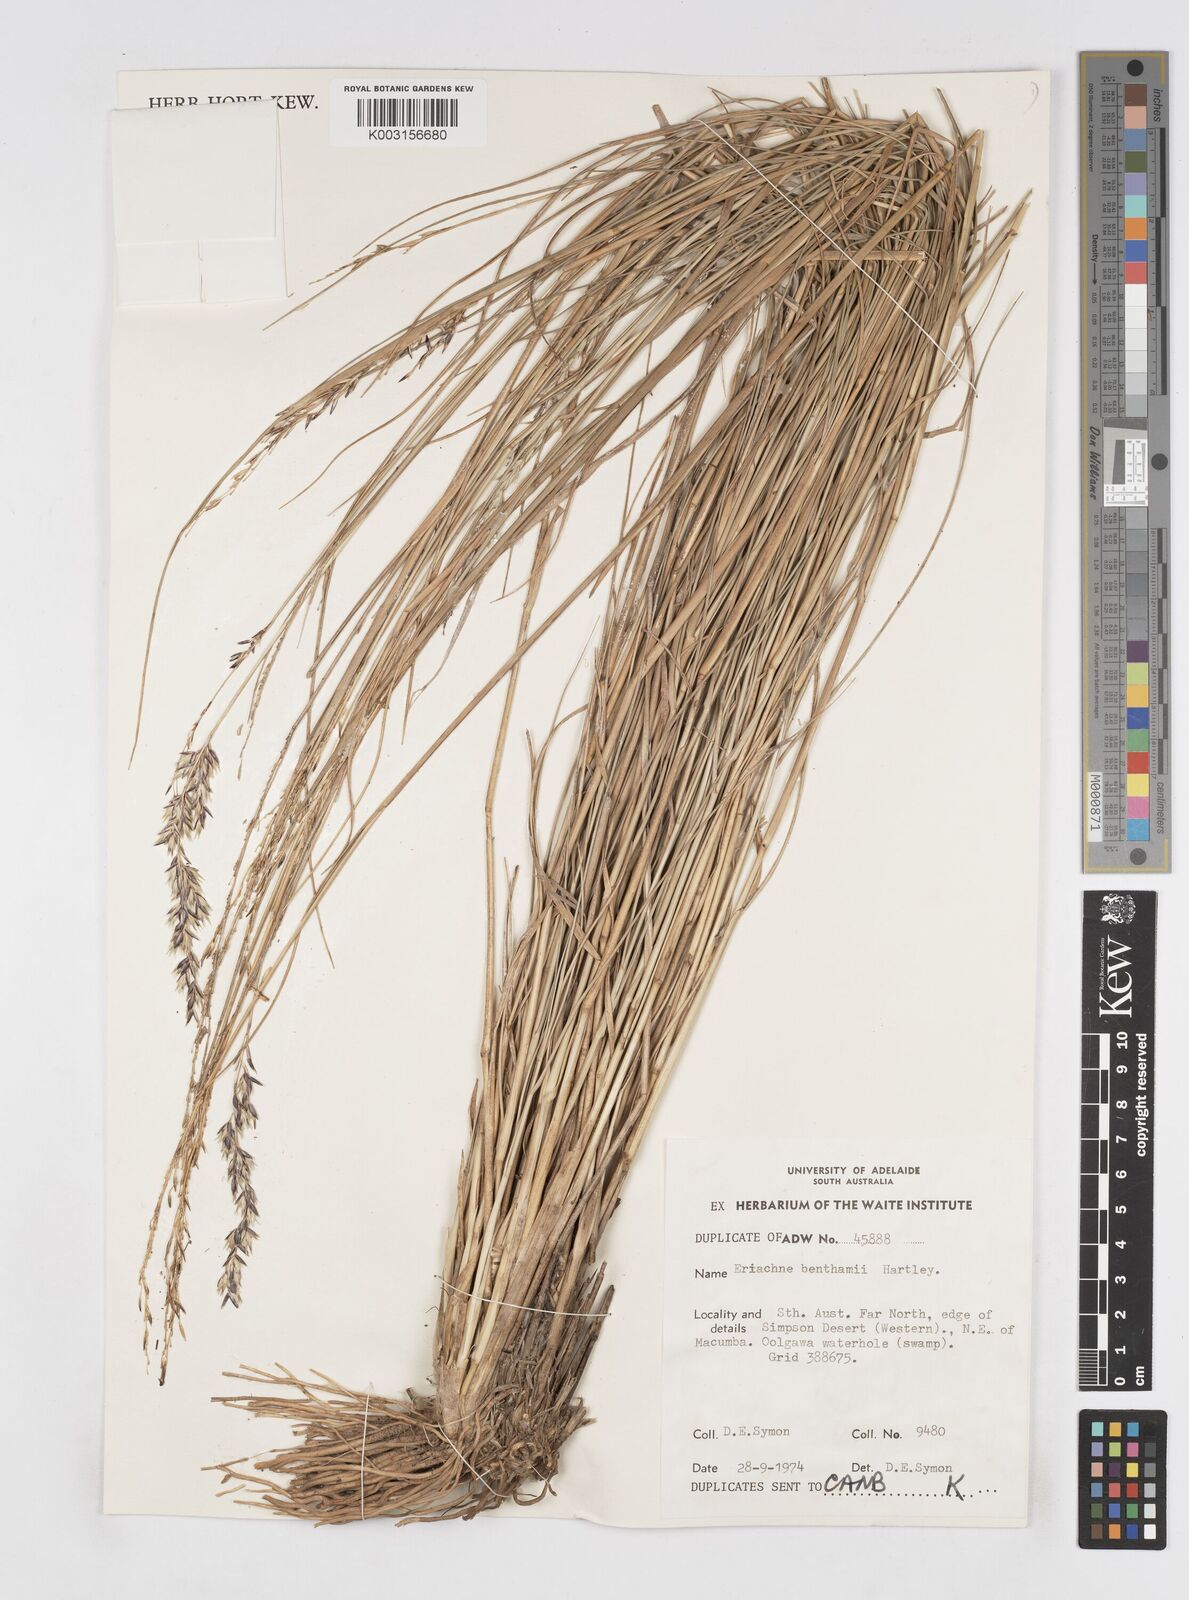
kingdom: Plantae
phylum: Tracheophyta
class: Liliopsida
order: Poales
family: Poaceae
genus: Eriachne
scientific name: Eriachne benthamii
